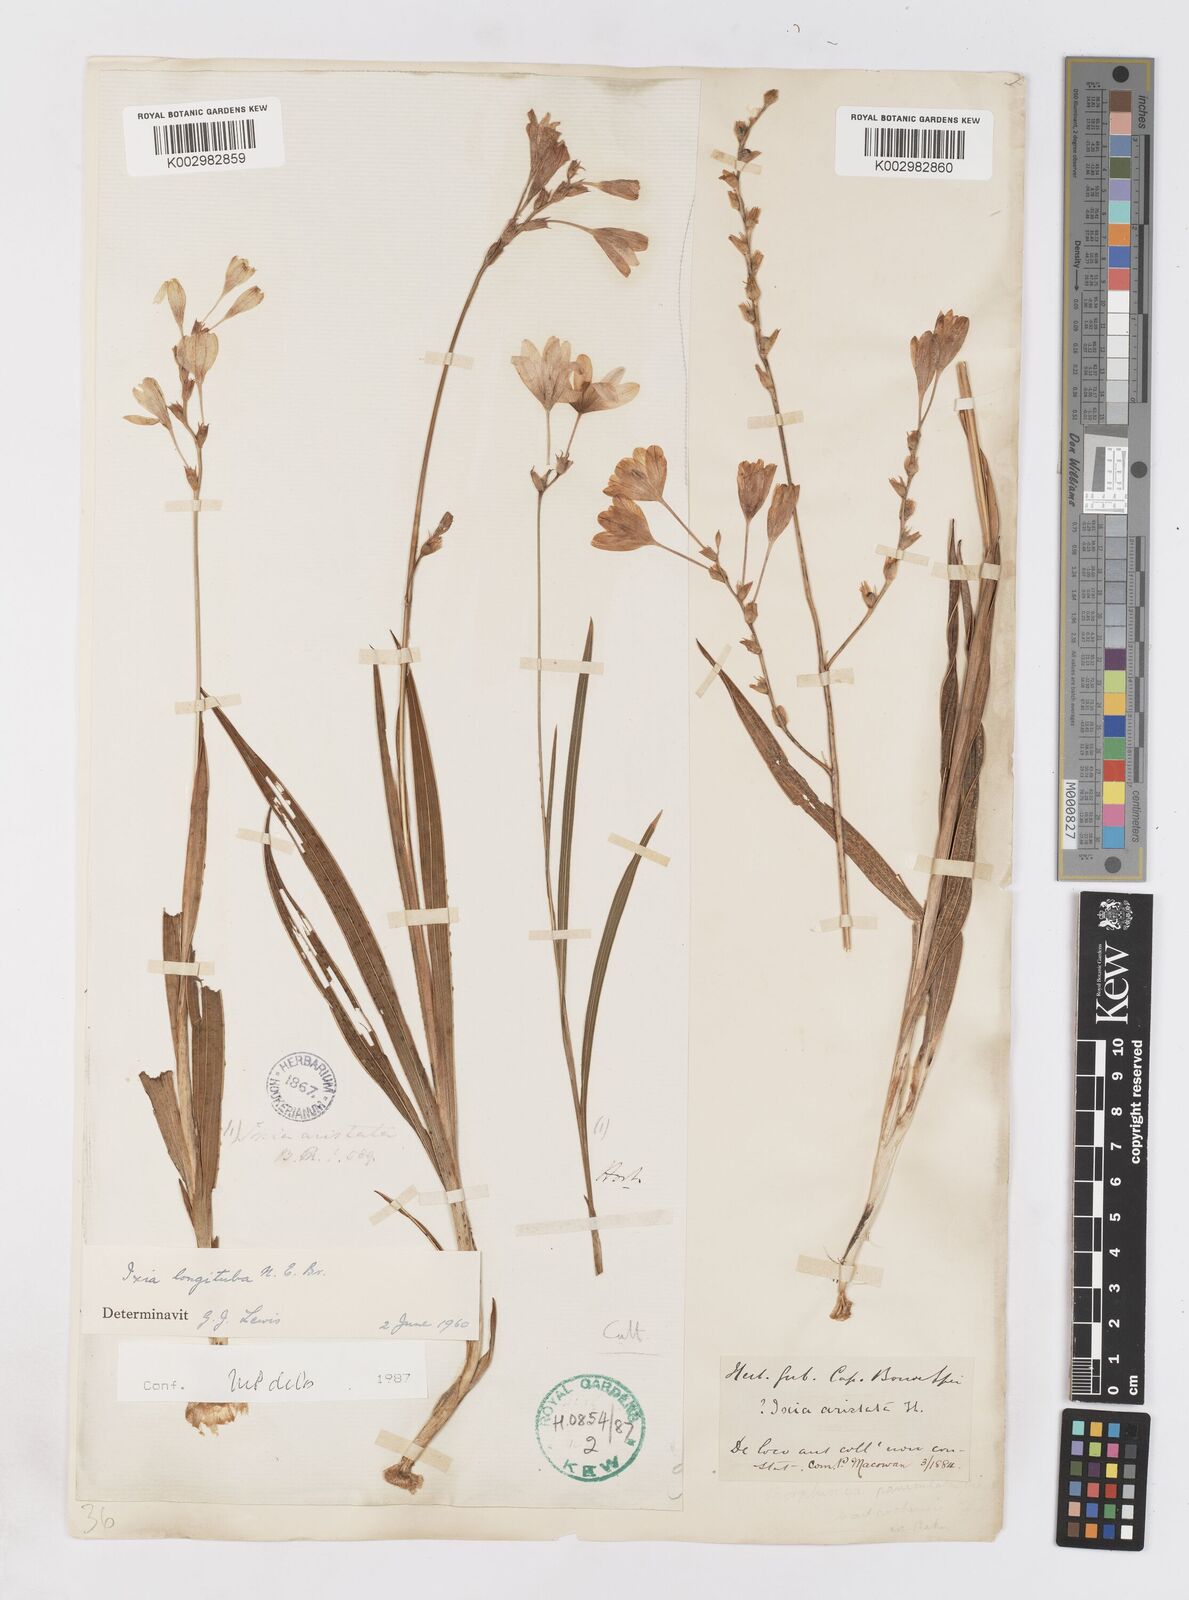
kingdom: Plantae
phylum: Tracheophyta
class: Liliopsida
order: Asparagales
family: Iridaceae
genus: Ixia
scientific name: Ixia longituba
